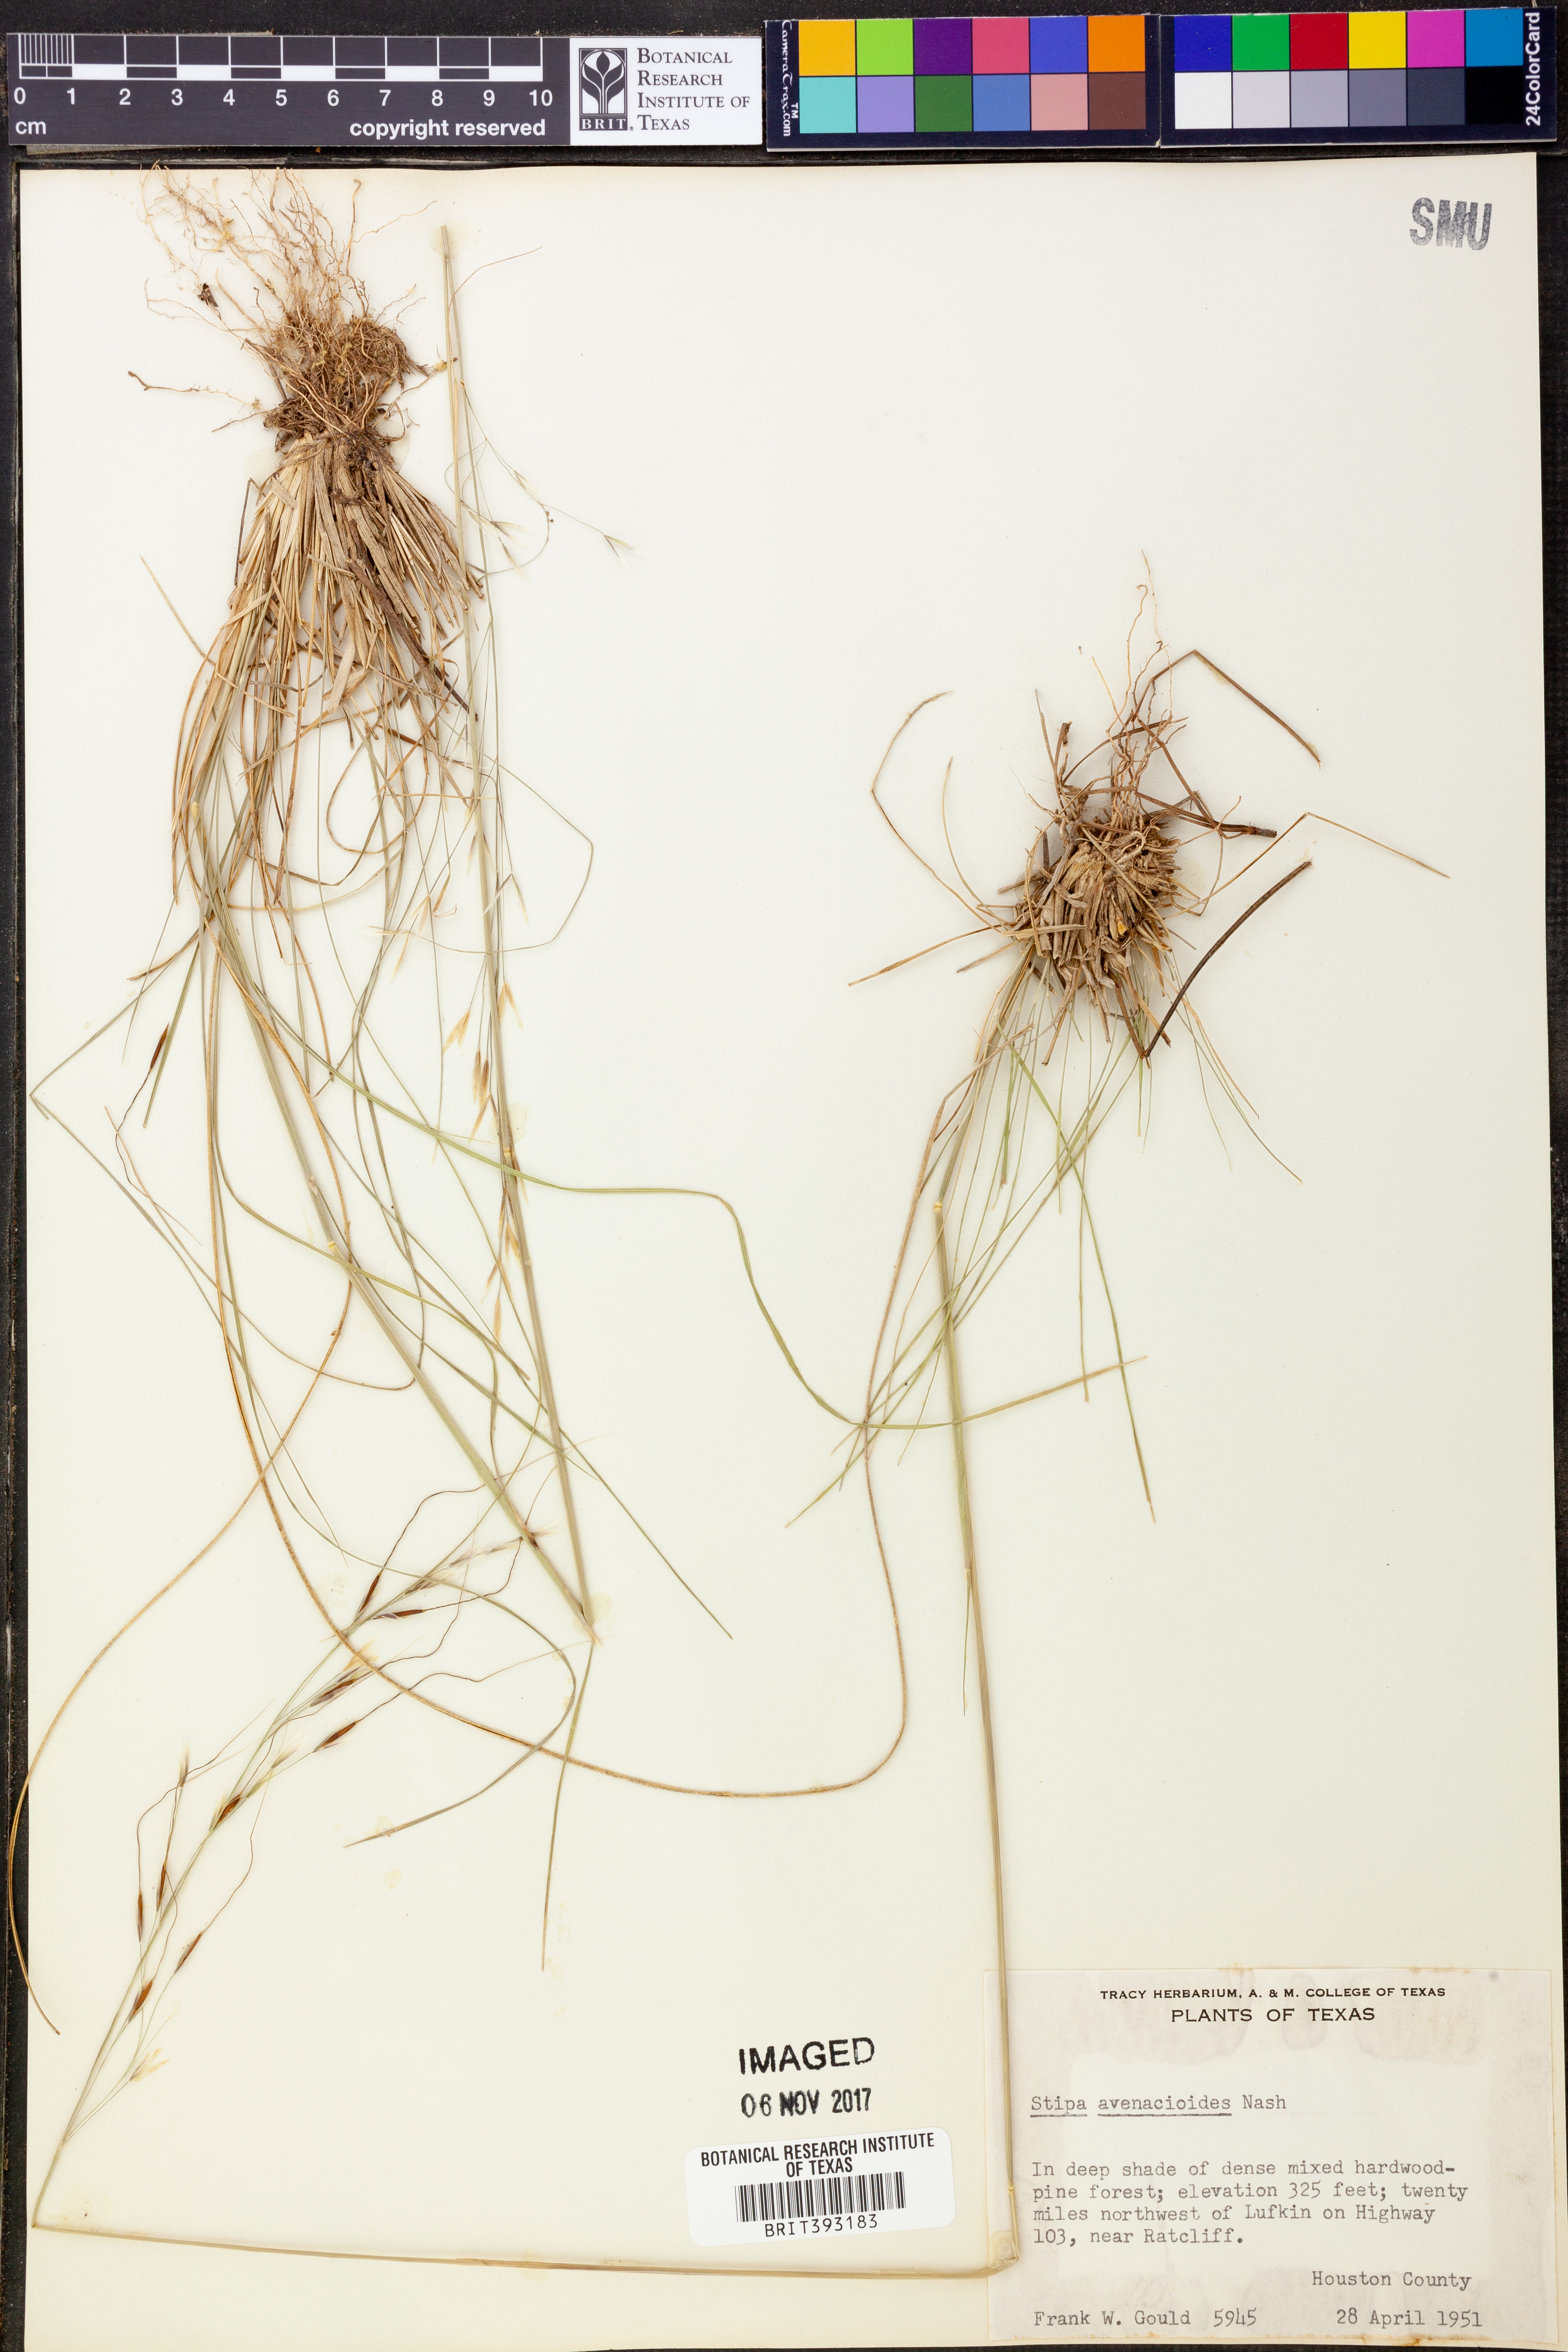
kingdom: Plantae
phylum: Tracheophyta
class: Liliopsida
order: Poales
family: Poaceae
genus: Piptochaetium
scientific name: Piptochaetium avenacioides
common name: Florida needlegrass
